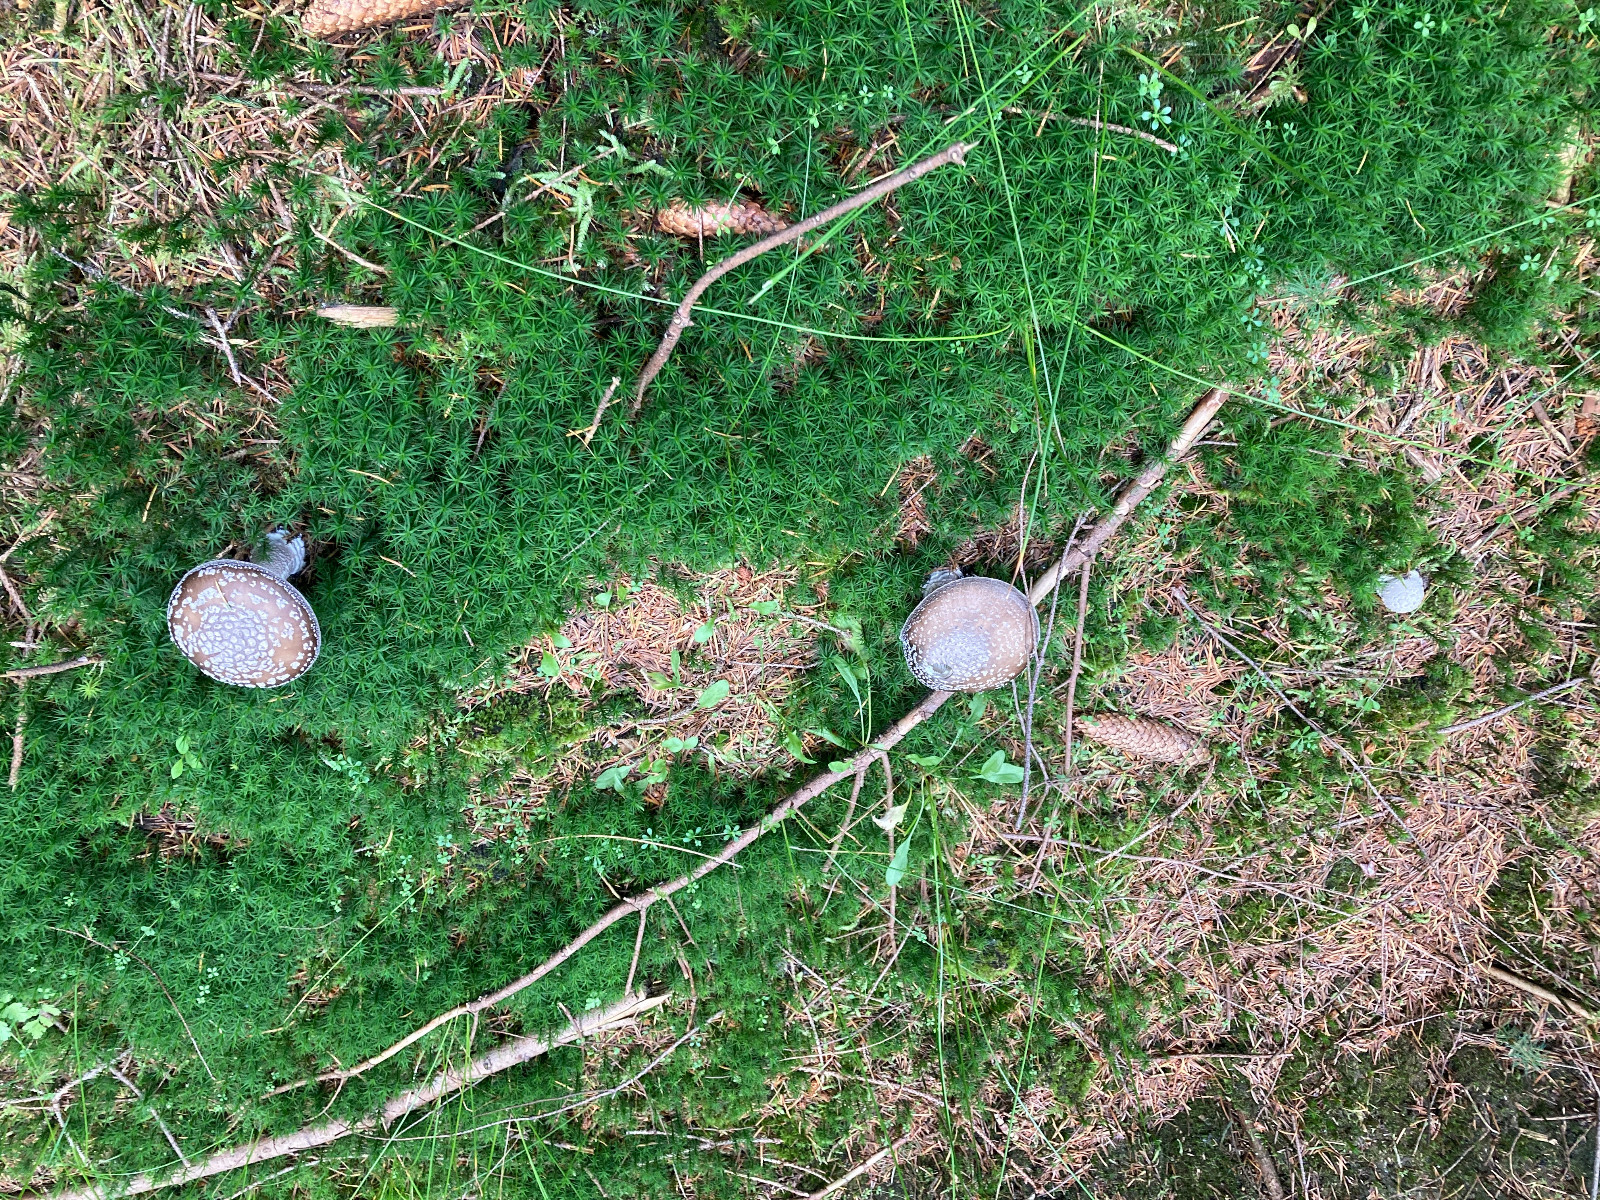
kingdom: Fungi
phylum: Basidiomycota
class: Agaricomycetes
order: Agaricales
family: Amanitaceae
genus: Amanita
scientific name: Amanita
